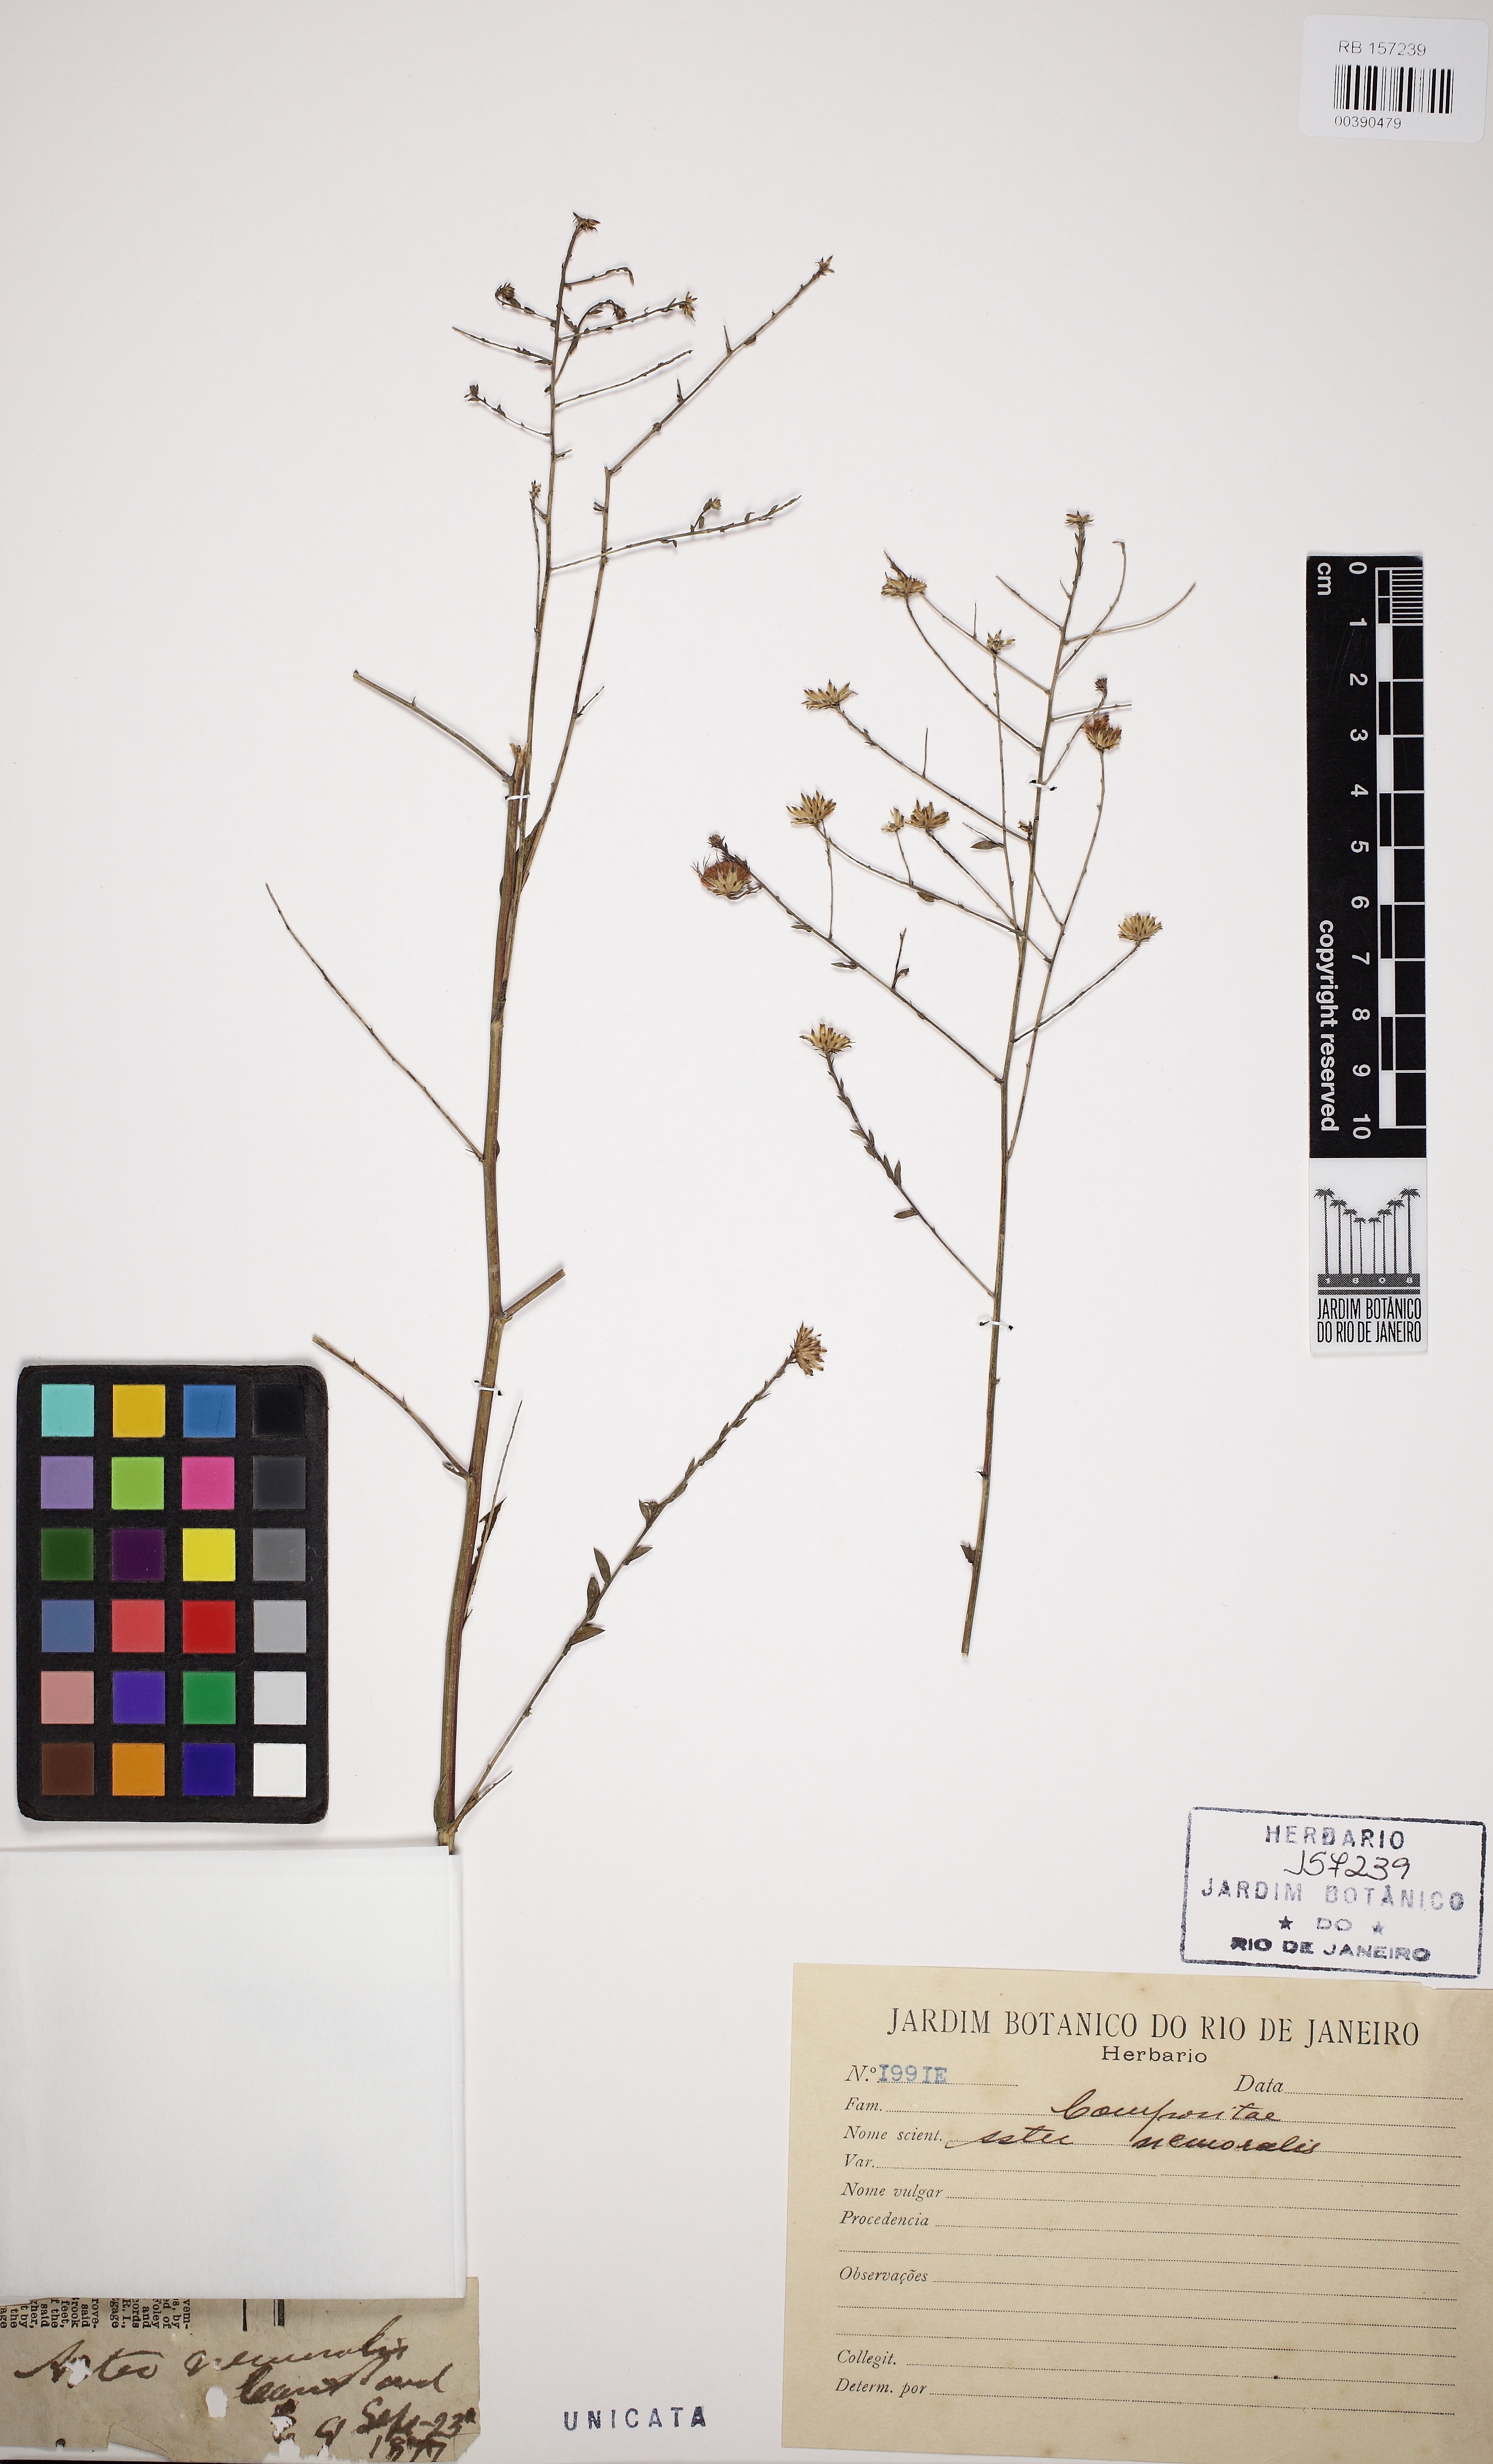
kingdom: Plantae
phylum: Tracheophyta
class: Magnoliopsida
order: Asterales
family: Asteraceae
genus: Oclemena
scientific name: Oclemena nemoralis
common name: Bog aster
